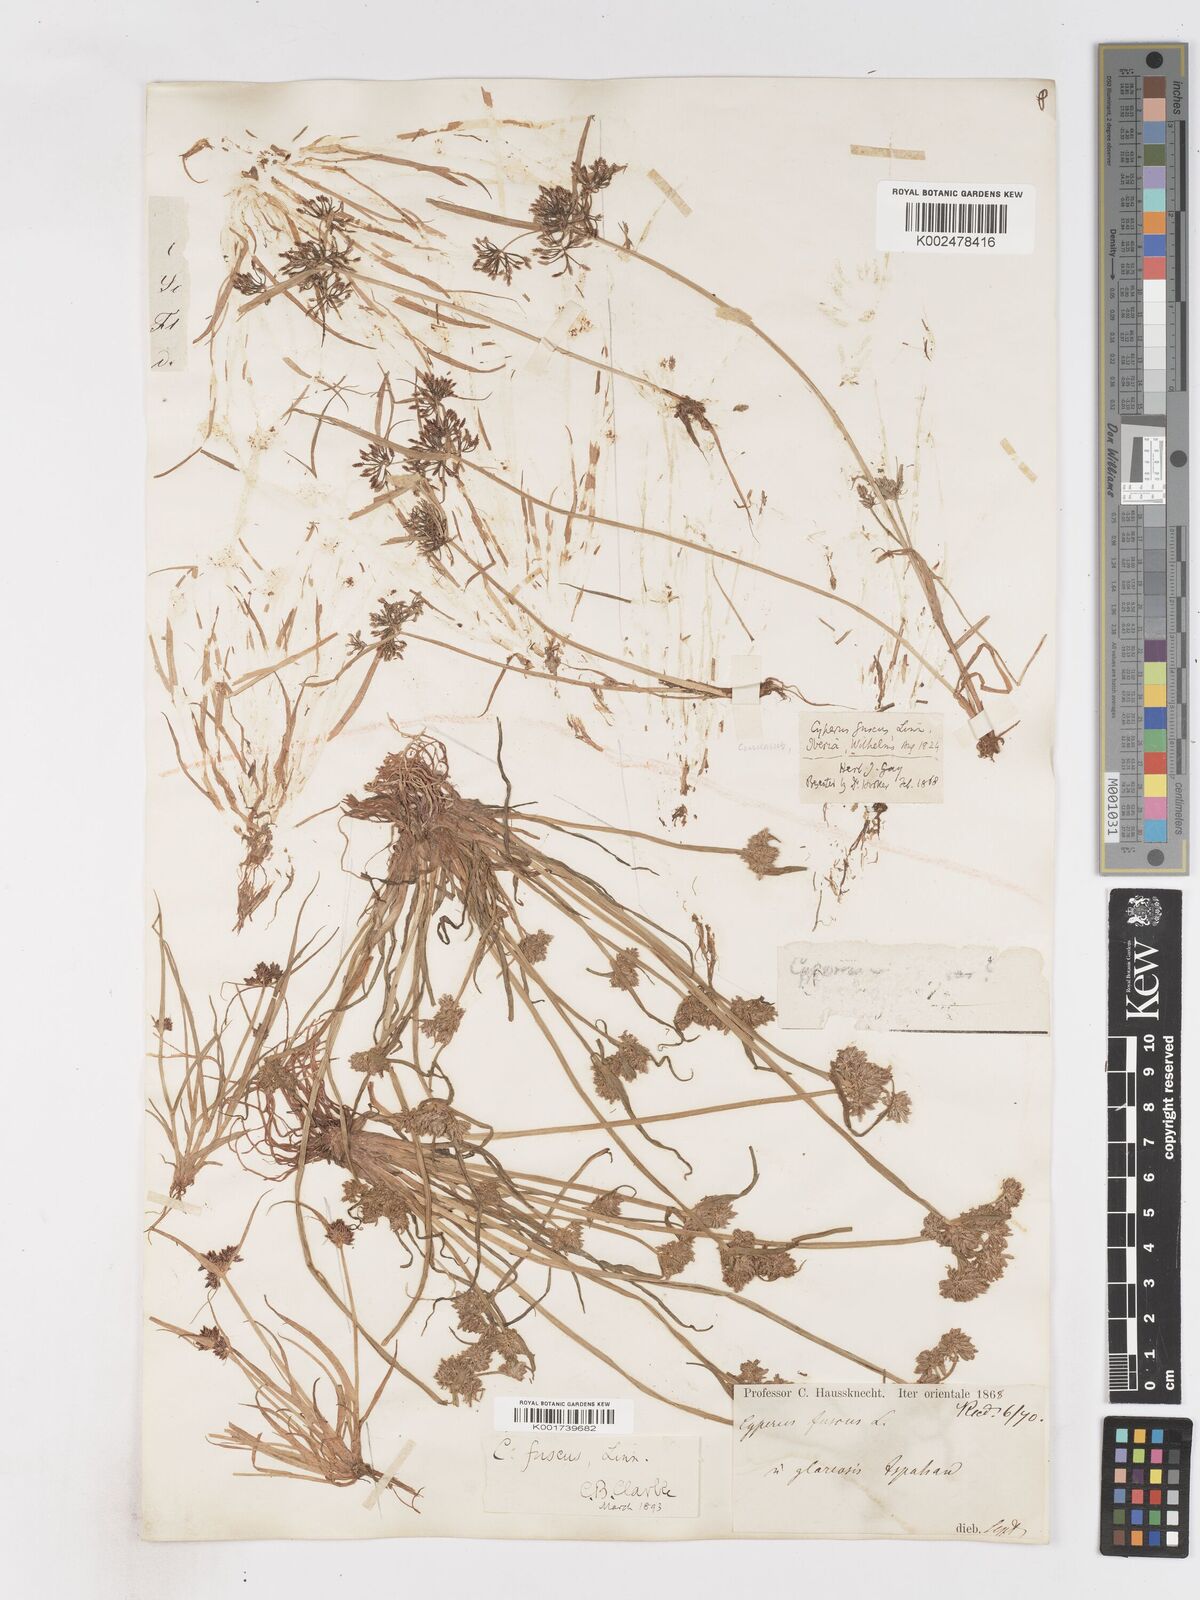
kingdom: Plantae
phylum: Tracheophyta
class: Liliopsida
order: Poales
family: Cyperaceae
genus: Cyperus
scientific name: Cyperus fuscus
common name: Brown galingale
